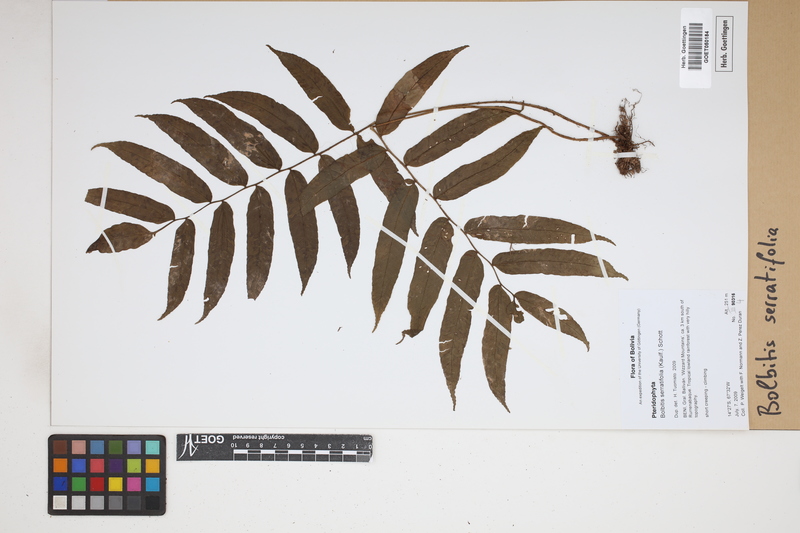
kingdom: Plantae
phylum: Tracheophyta
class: Polypodiopsida
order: Polypodiales
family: Dryopteridaceae
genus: Bolbitis
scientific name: Bolbitis serratifolia
